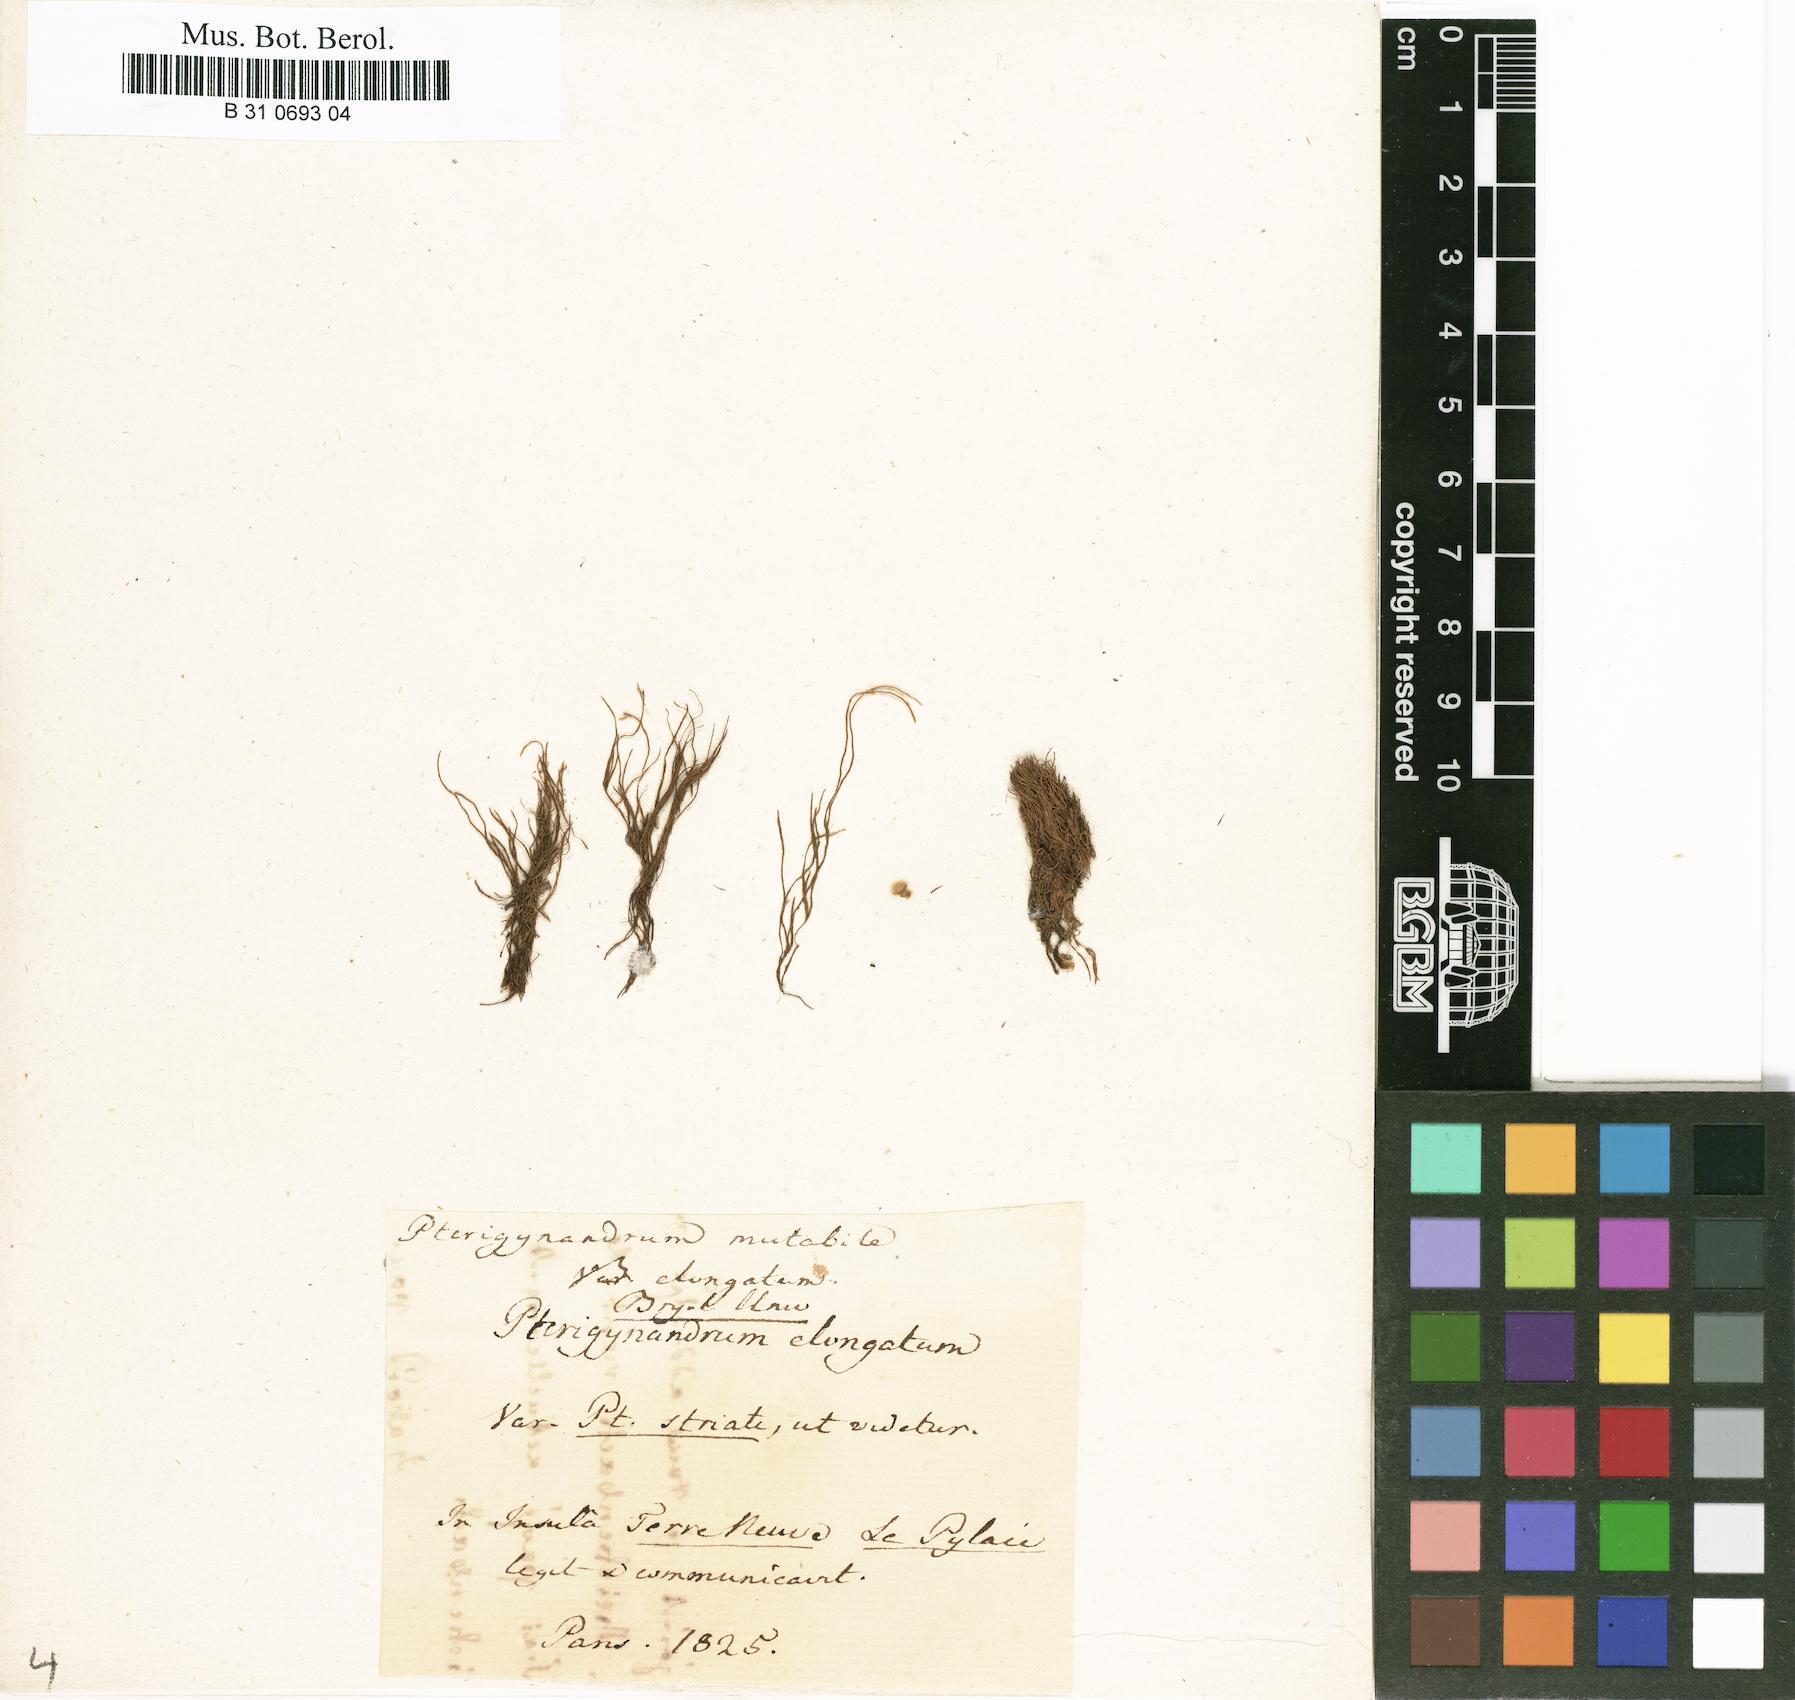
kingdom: Plantae
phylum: Bryophyta
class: Bryopsida
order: Hypnales
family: Pseudoleskeaceae
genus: Lescuraea
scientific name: Lescuraea mutabilis
